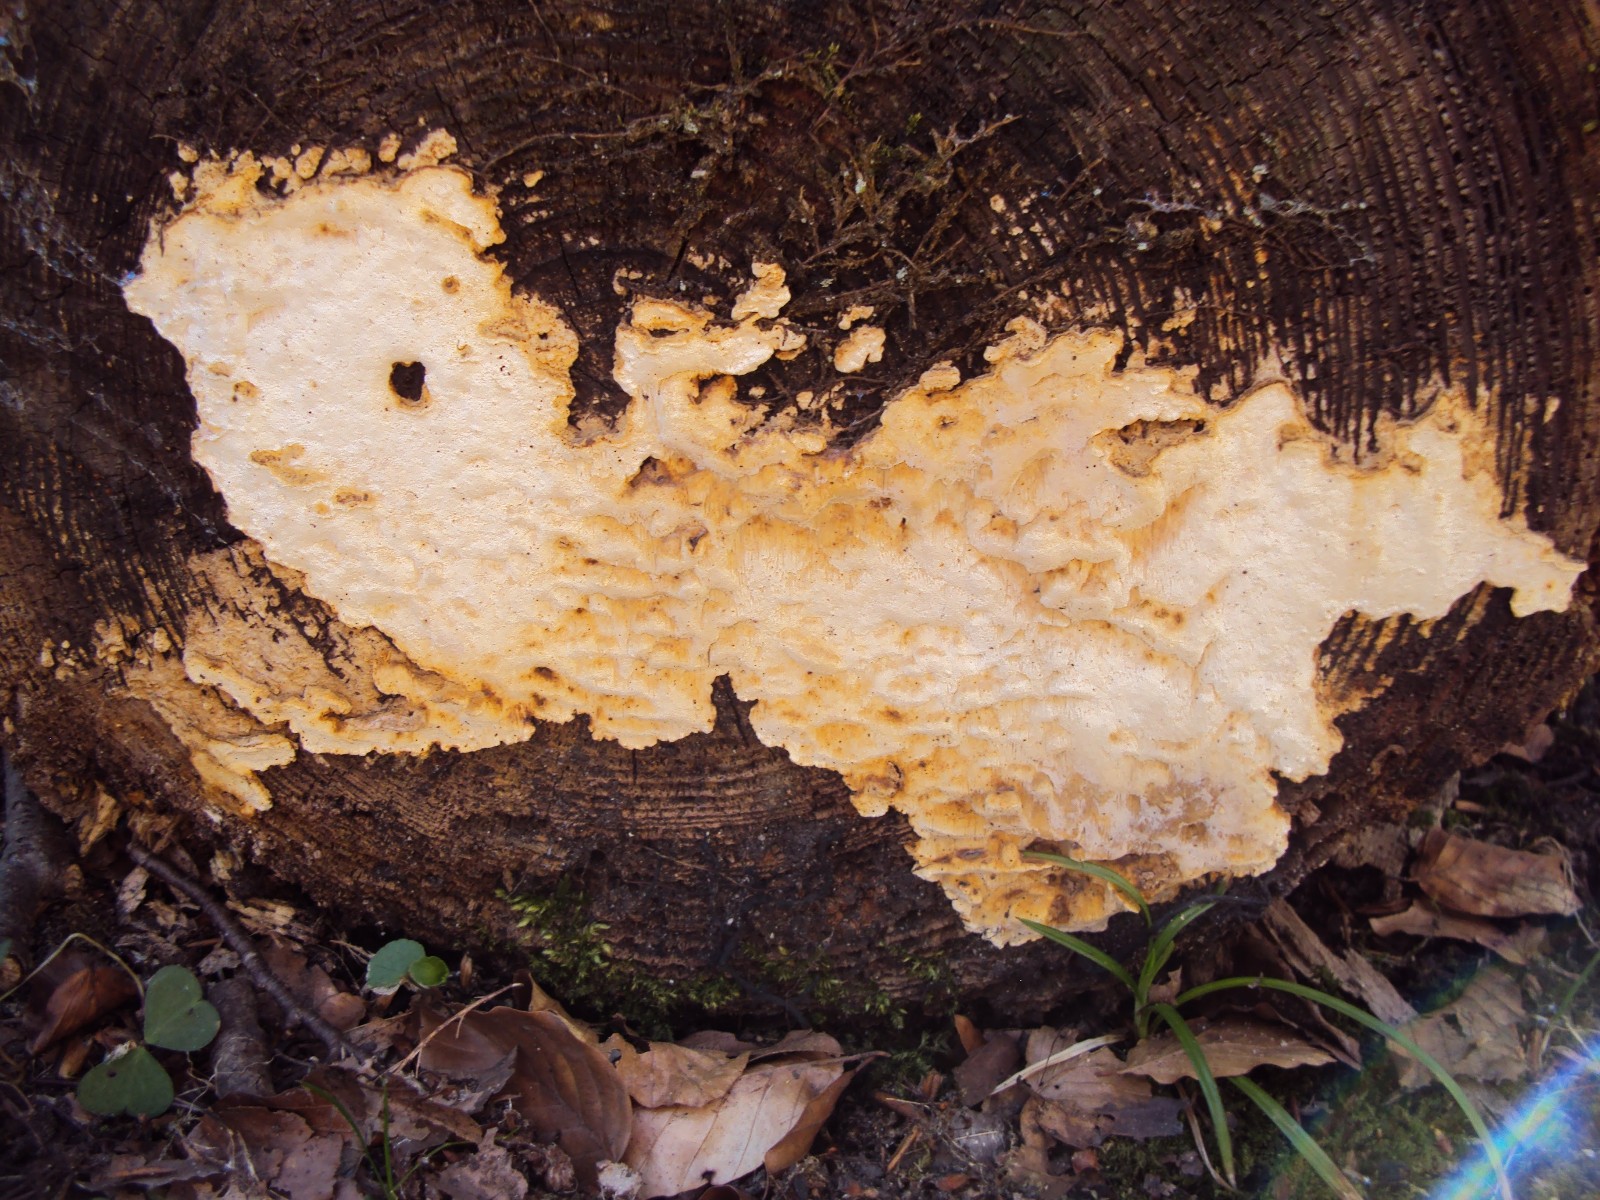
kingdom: Fungi
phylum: Basidiomycota
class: Agaricomycetes
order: Polyporales
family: Fomitopsidaceae
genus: Neoantrodia
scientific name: Neoantrodia serialis
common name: række-sejporesvamp
